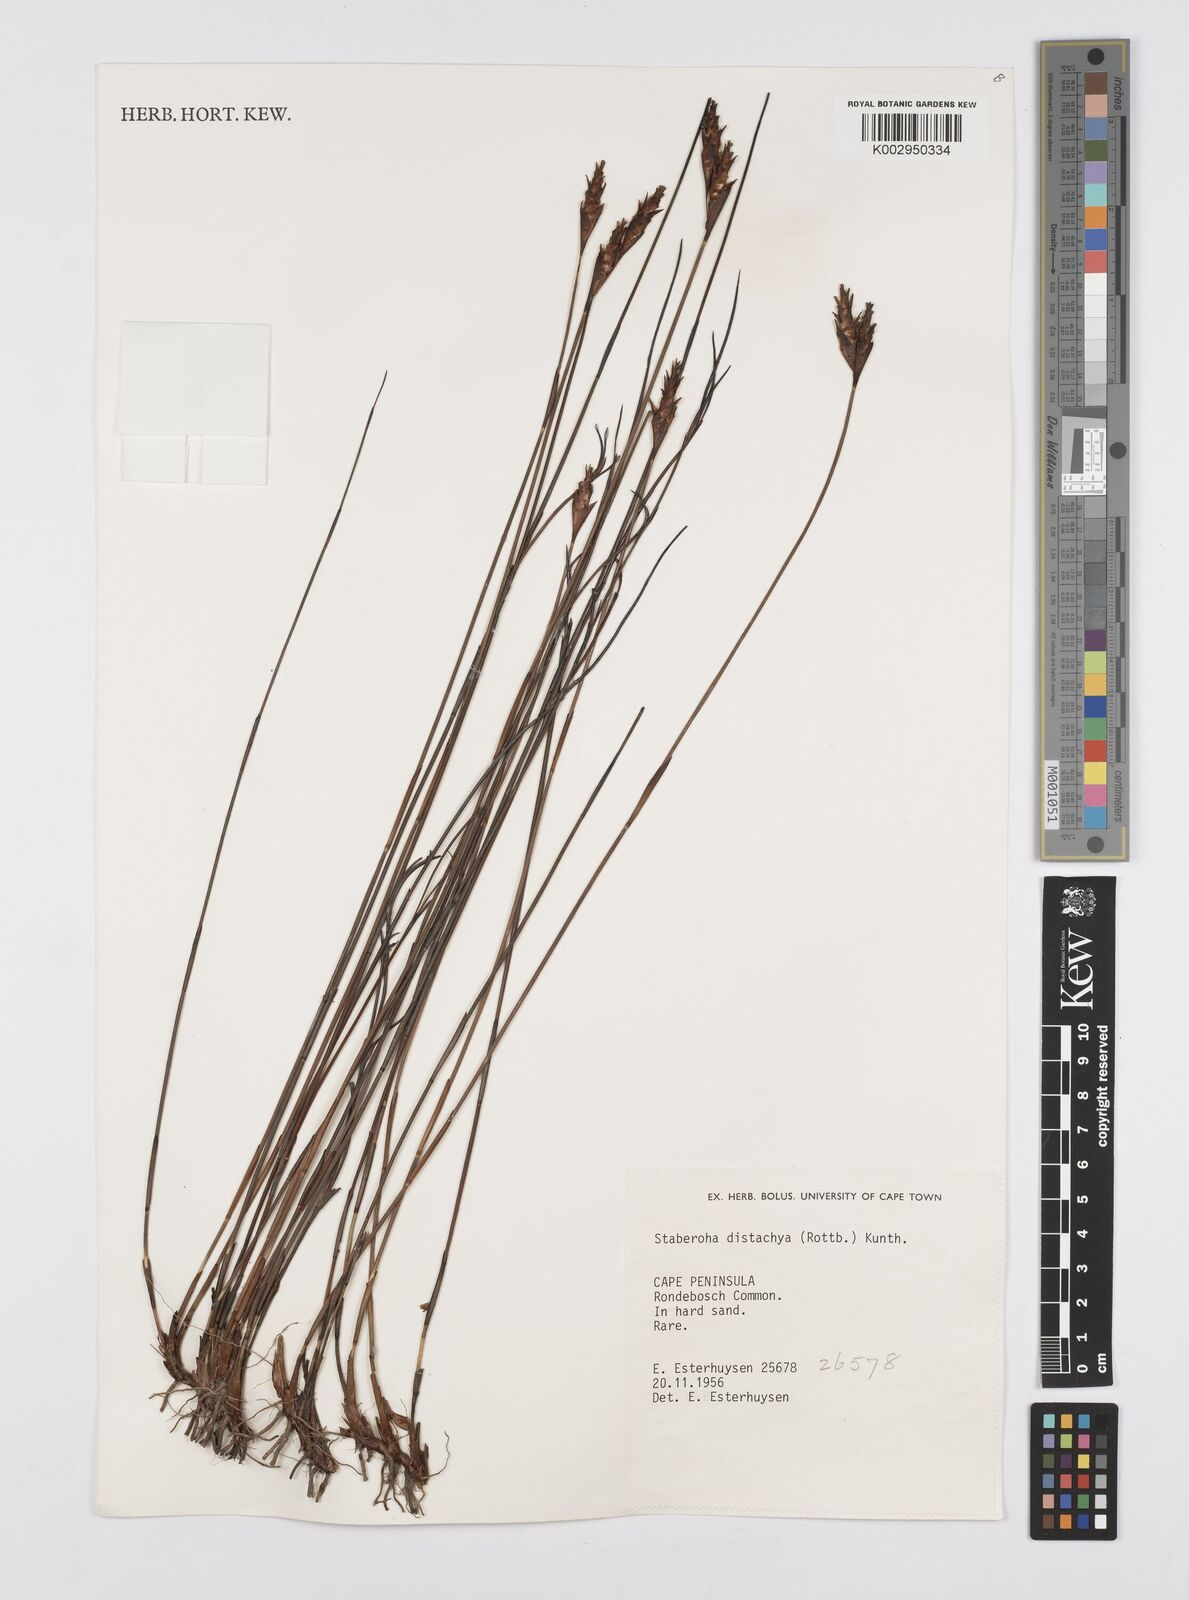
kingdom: Plantae
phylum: Tracheophyta
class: Liliopsida
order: Poales
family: Restionaceae
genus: Staberoha
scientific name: Staberoha distachyos
